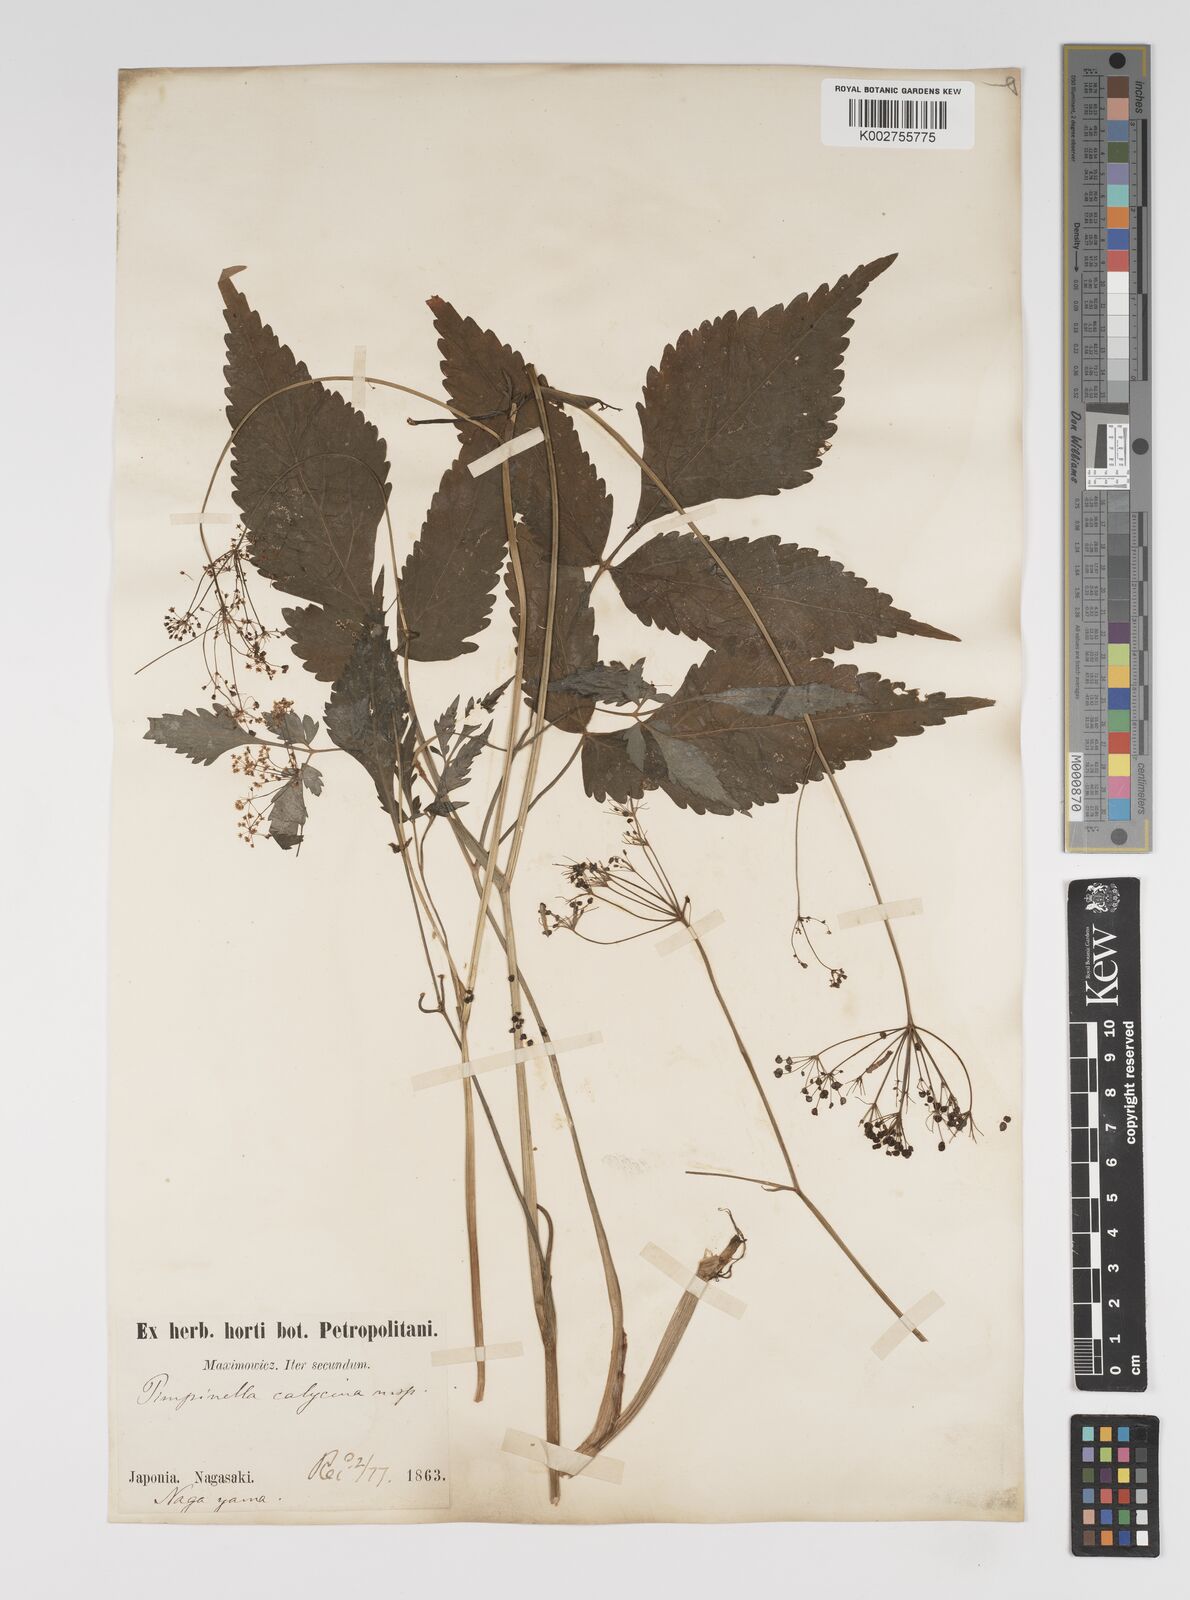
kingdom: Plantae
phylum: Tracheophyta
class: Magnoliopsida
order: Apiales
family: Apiaceae
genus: Spuriopimpinella
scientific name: Spuriopimpinella calycina
